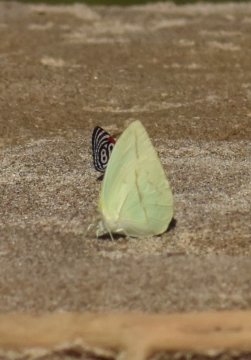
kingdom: Animalia
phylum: Arthropoda
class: Insecta
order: Lepidoptera
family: Pieridae
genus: Rhabdodryas
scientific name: Rhabdodryas trite
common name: Straight-lined Sulphur
